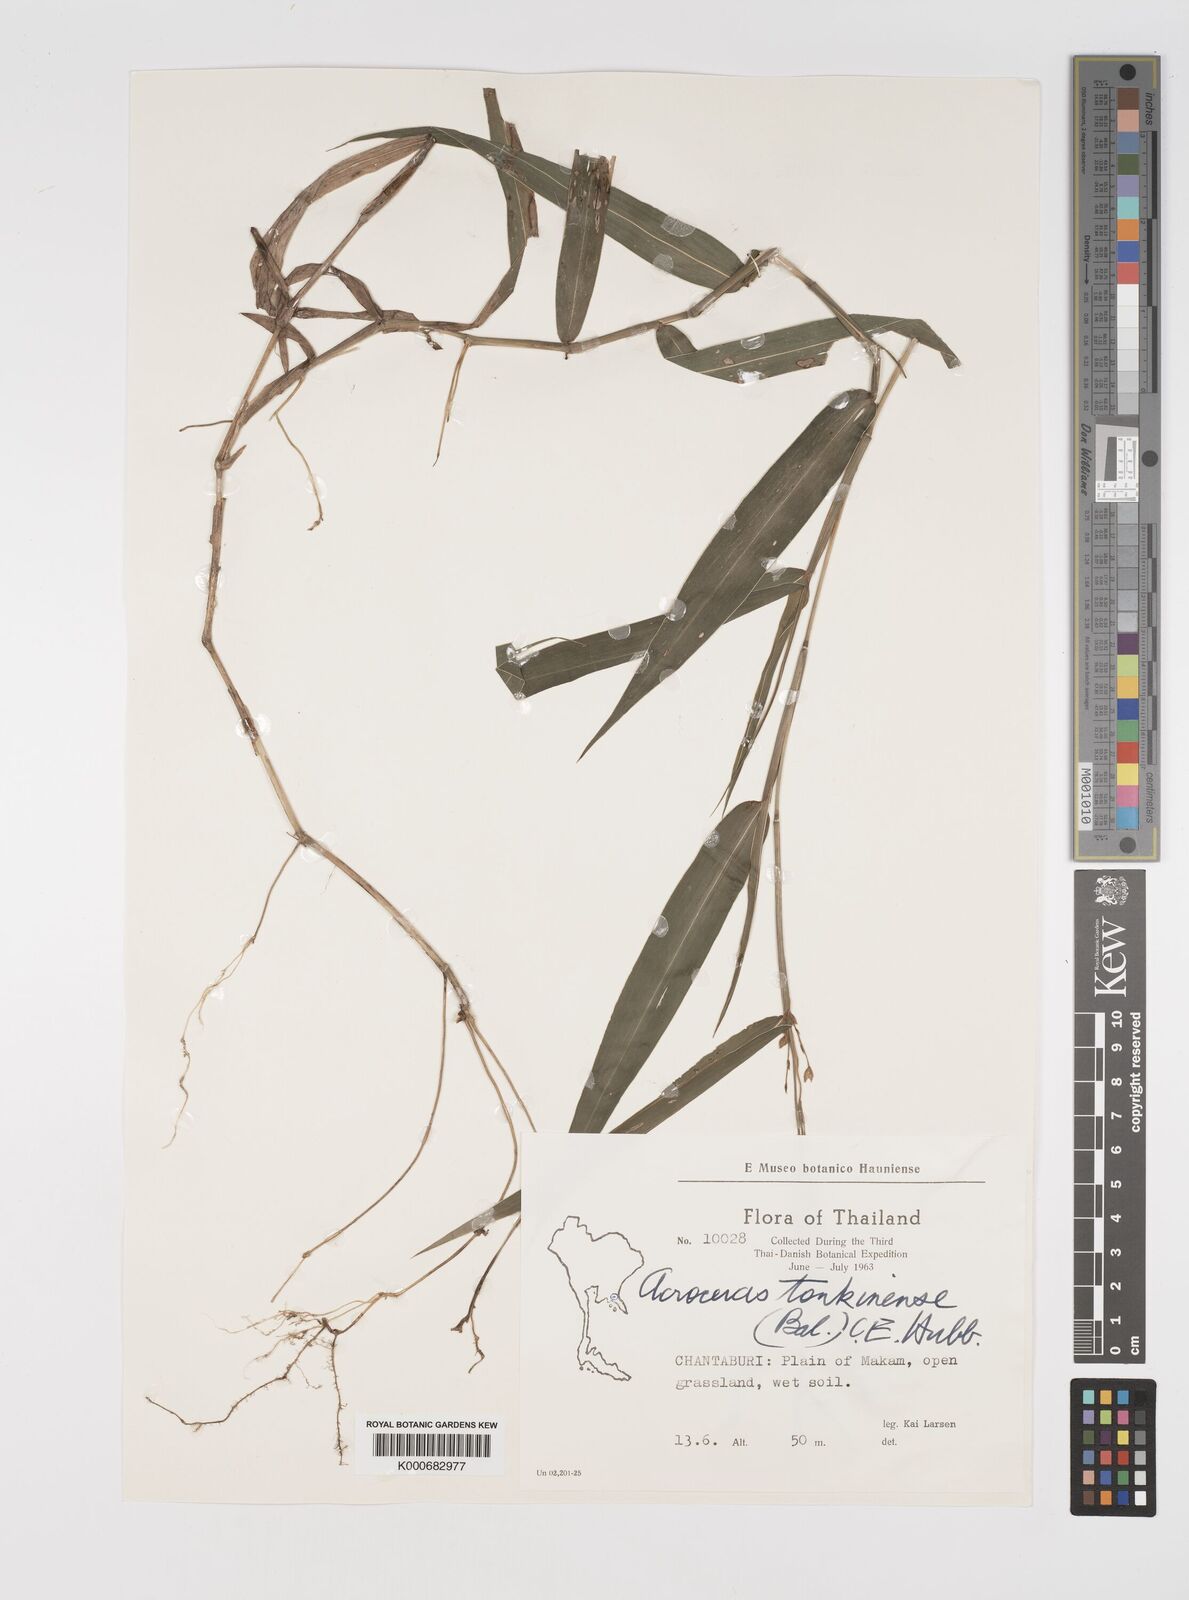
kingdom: Plantae
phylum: Tracheophyta
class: Liliopsida
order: Poales
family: Poaceae
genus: Acroceras
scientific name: Acroceras
